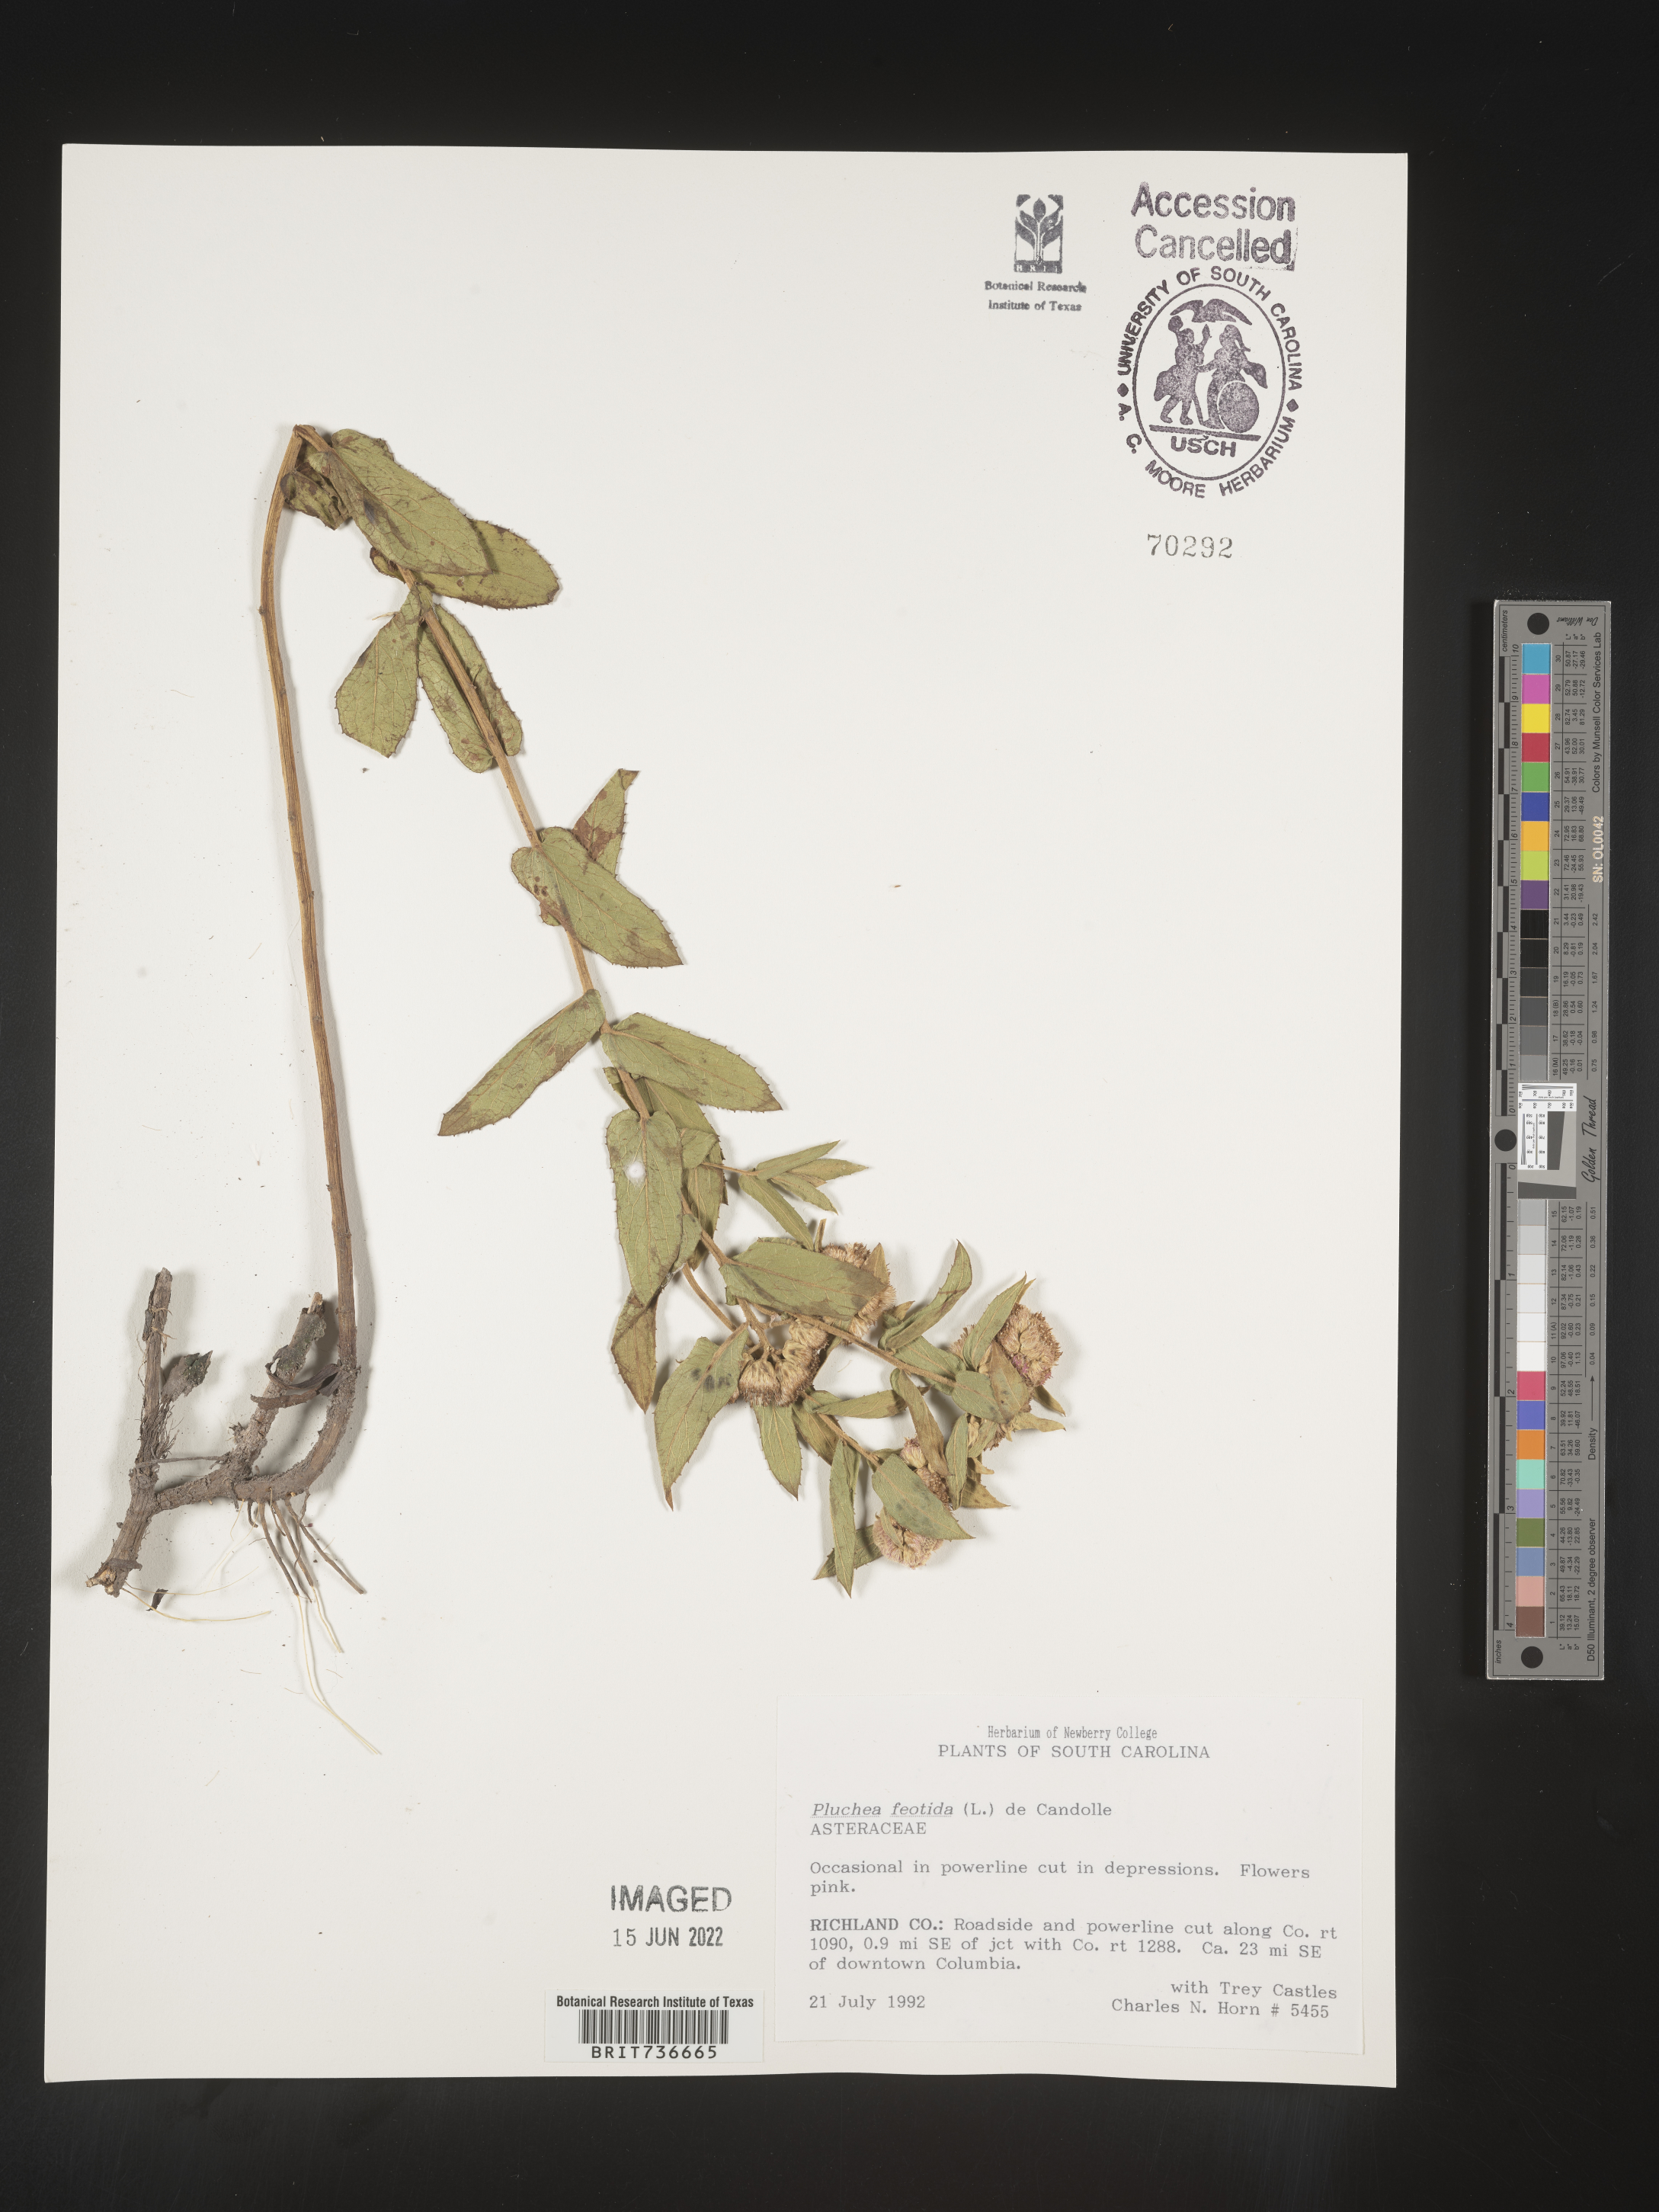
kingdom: Plantae
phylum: Tracheophyta
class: Magnoliopsida
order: Asterales
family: Asteraceae
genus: Pluchea
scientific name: Pluchea foetida
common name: Stinking camphorweed
